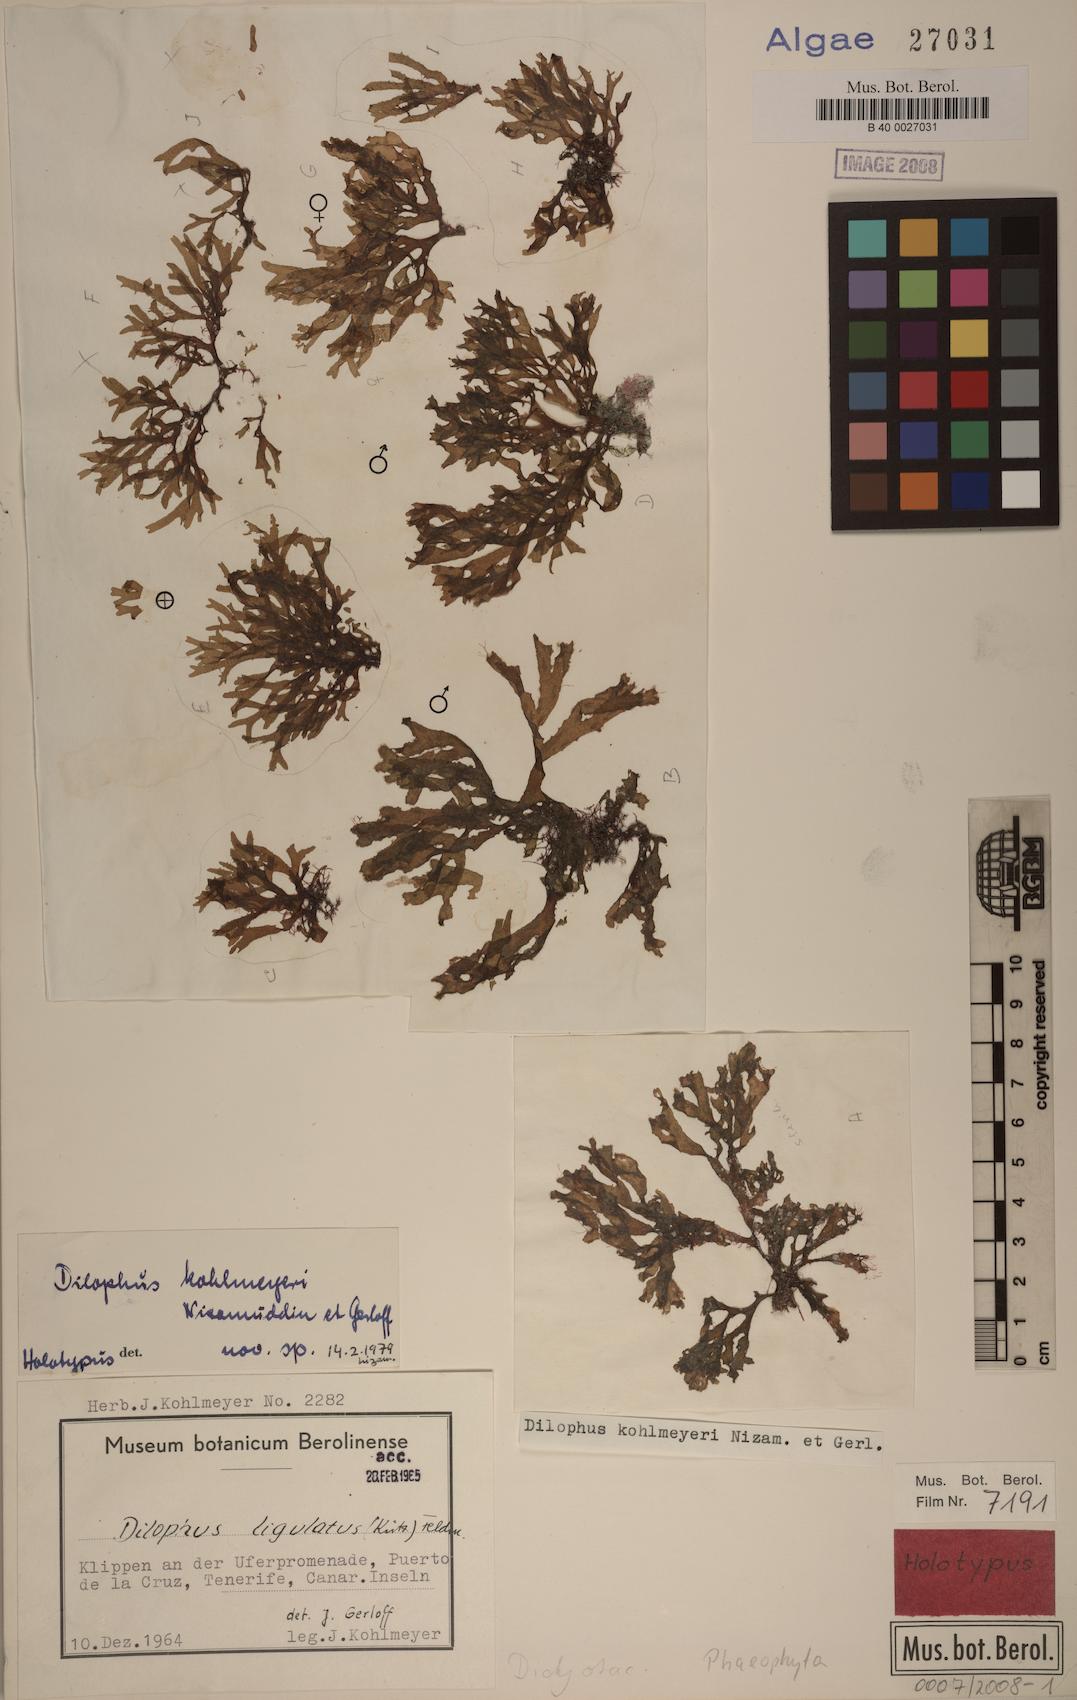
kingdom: Chromista
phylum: Ochrophyta
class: Phaeophyceae
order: Dictyotales
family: Dictyotaceae
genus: Dictyota
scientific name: Dictyota ciliolata
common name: Blue margined brown alga
